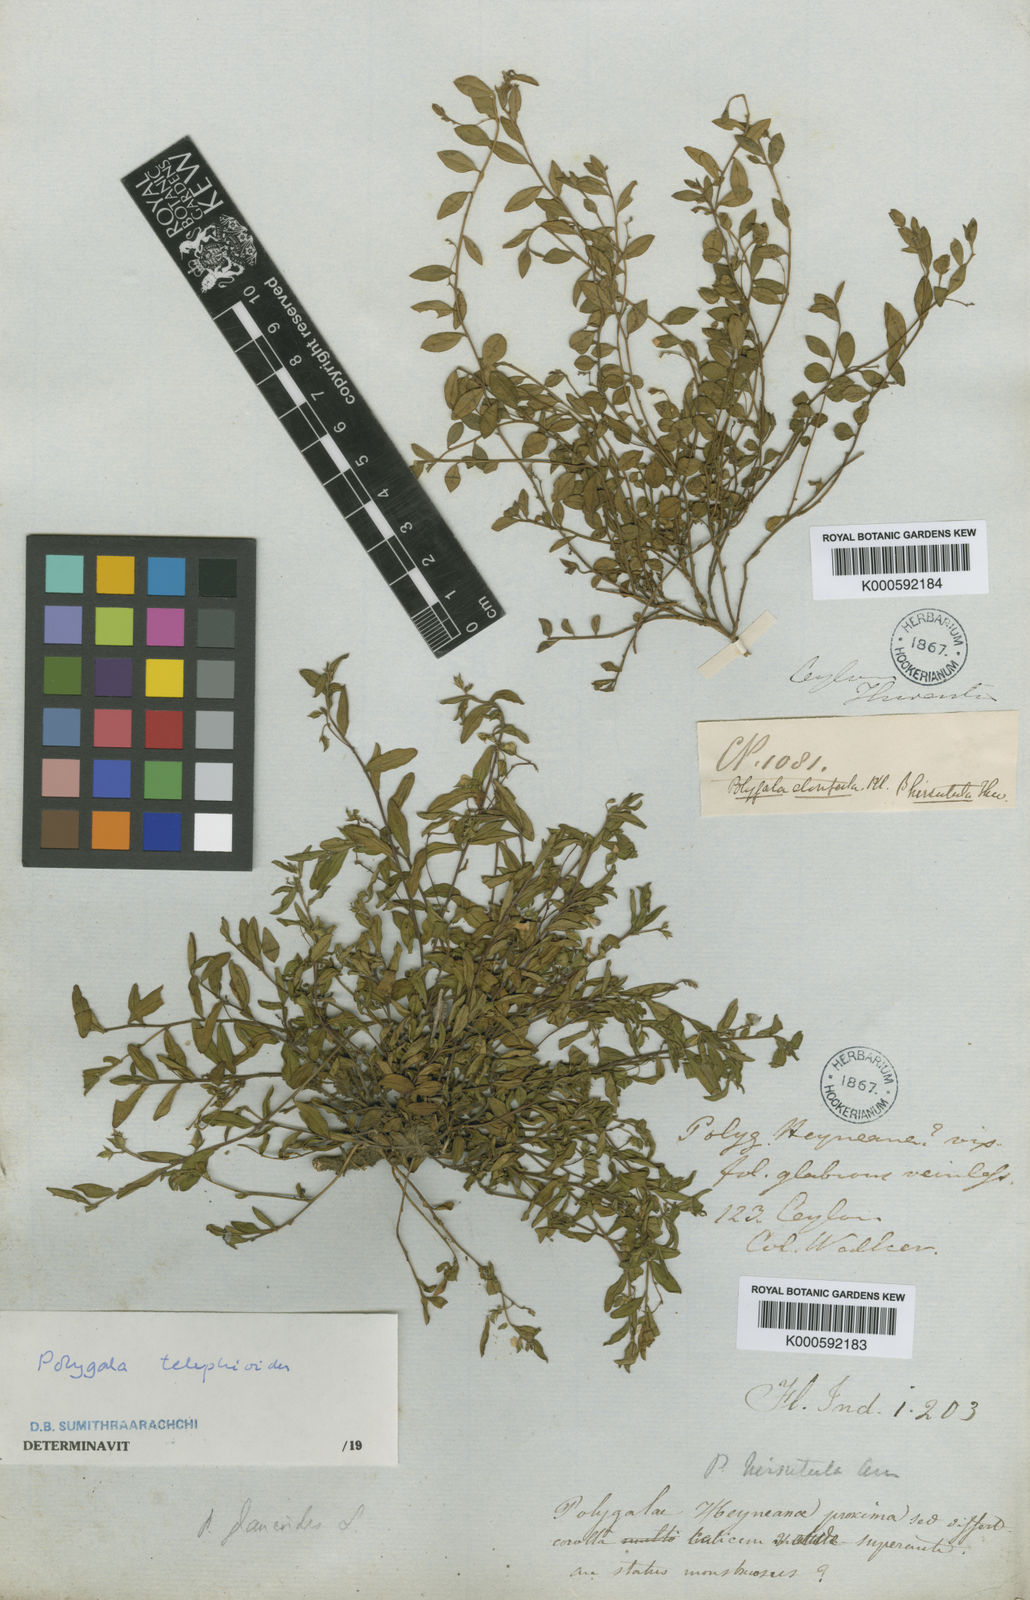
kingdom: Plantae
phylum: Tracheophyta
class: Magnoliopsida
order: Fabales
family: Polygalaceae
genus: Polygala
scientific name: Polygala
